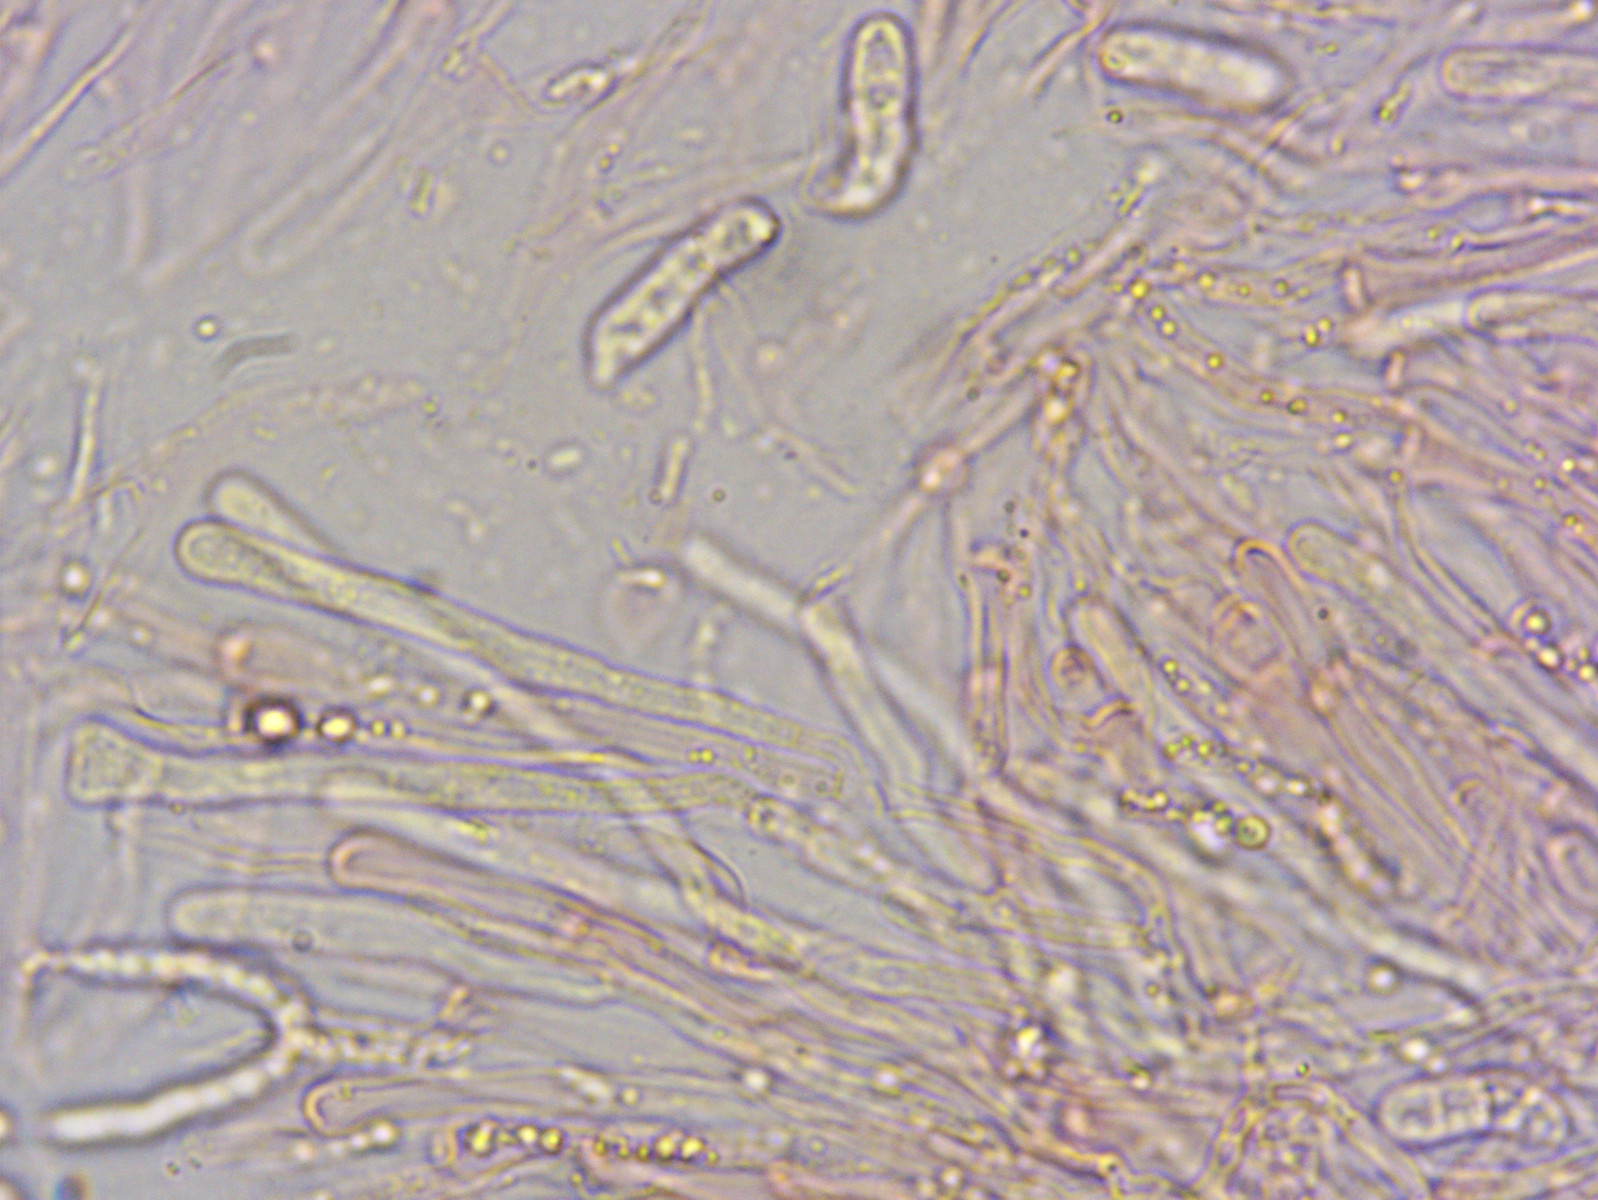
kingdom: Fungi
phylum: Basidiomycota
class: Dacrymycetes
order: Dacrymycetales
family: Dacrymycetaceae
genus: Dacrymyces
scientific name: Dacrymyces stillatus
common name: almindelig tåresvamp
